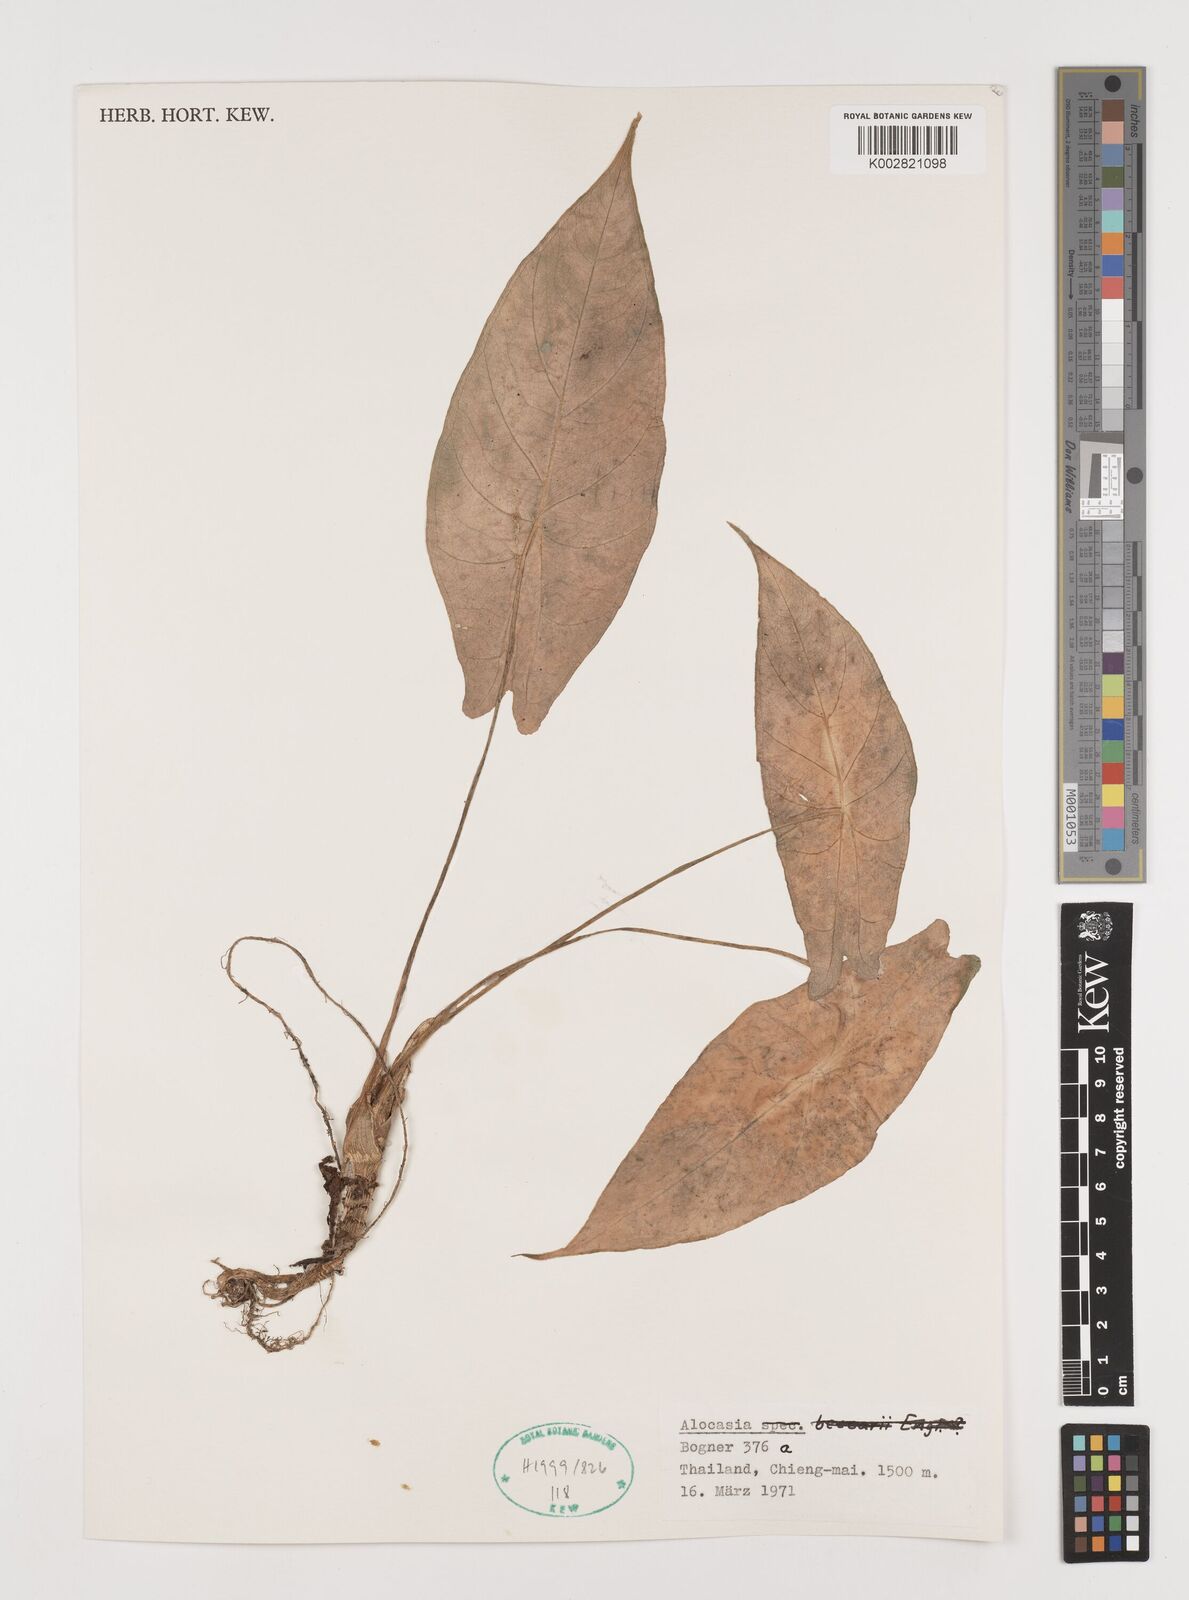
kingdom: Plantae
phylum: Tracheophyta
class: Liliopsida
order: Alismatales
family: Araceae
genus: Alocasia
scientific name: Alocasia
